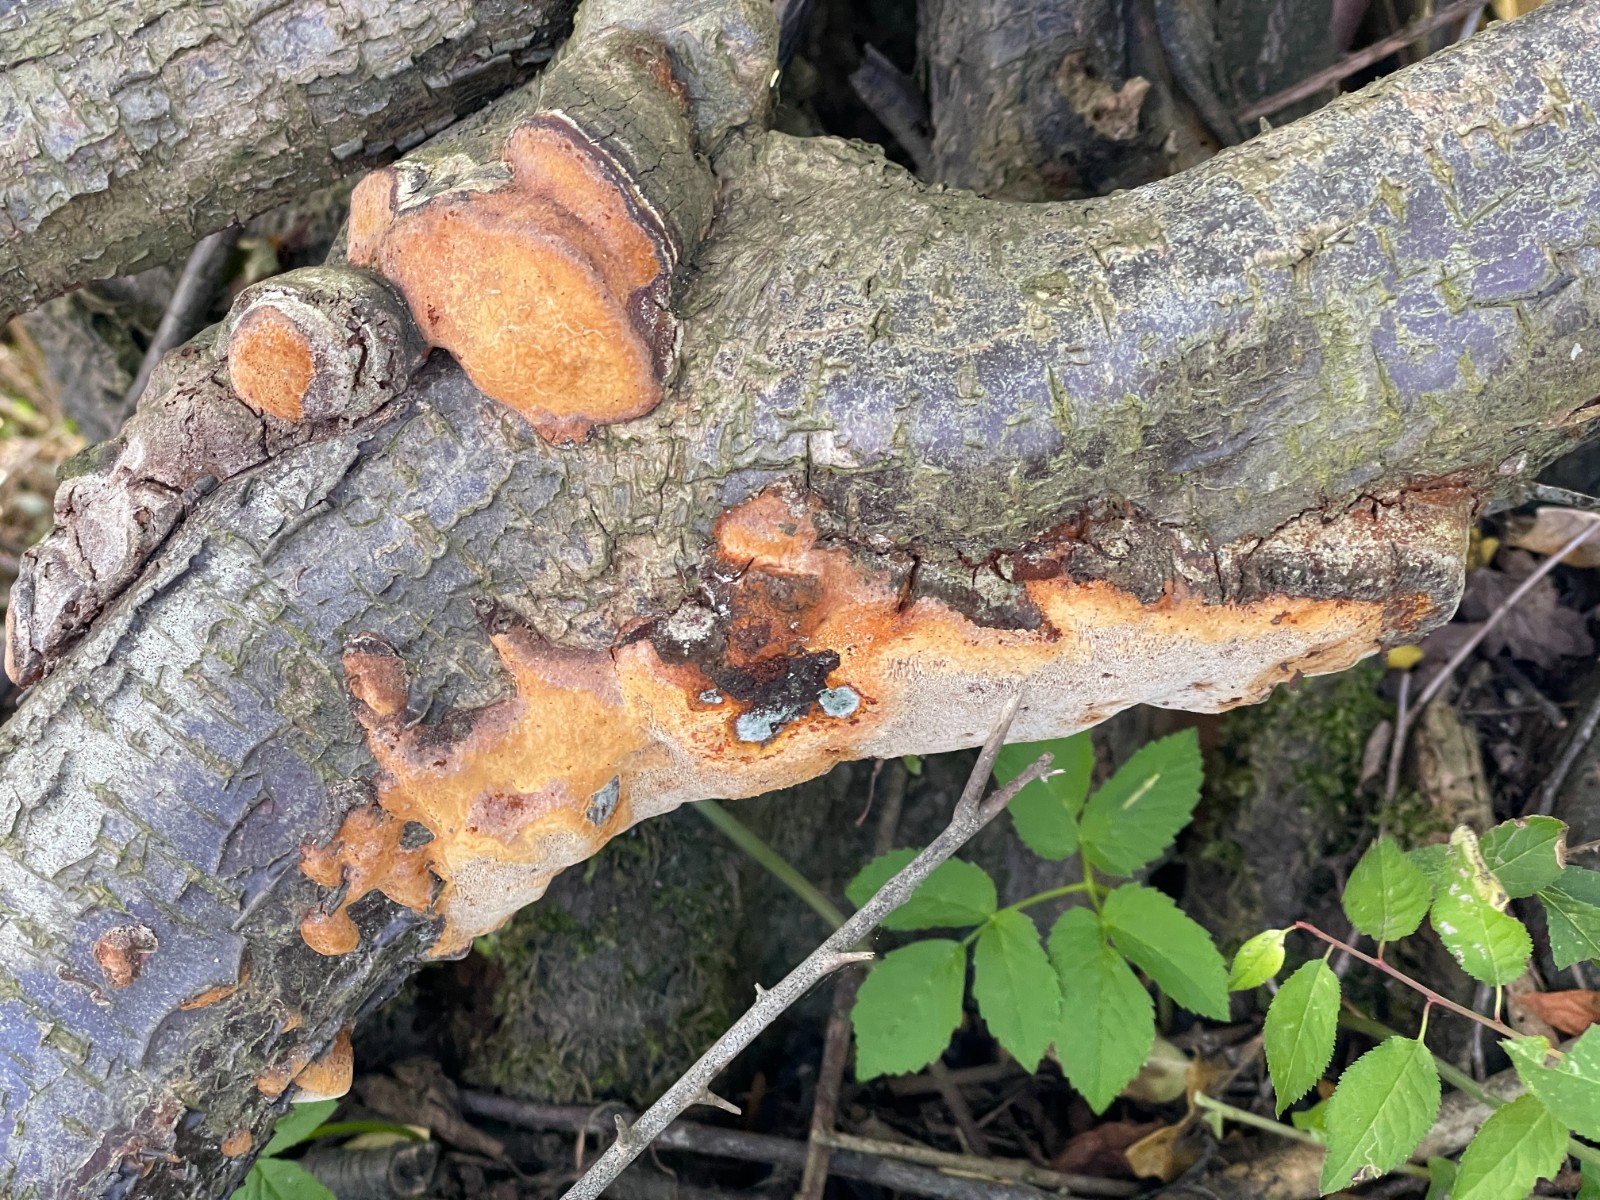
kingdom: Fungi
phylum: Basidiomycota
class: Agaricomycetes
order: Hymenochaetales
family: Hymenochaetaceae
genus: Phellinus
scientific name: Phellinus pomaceus
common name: blomme-ildporesvamp
